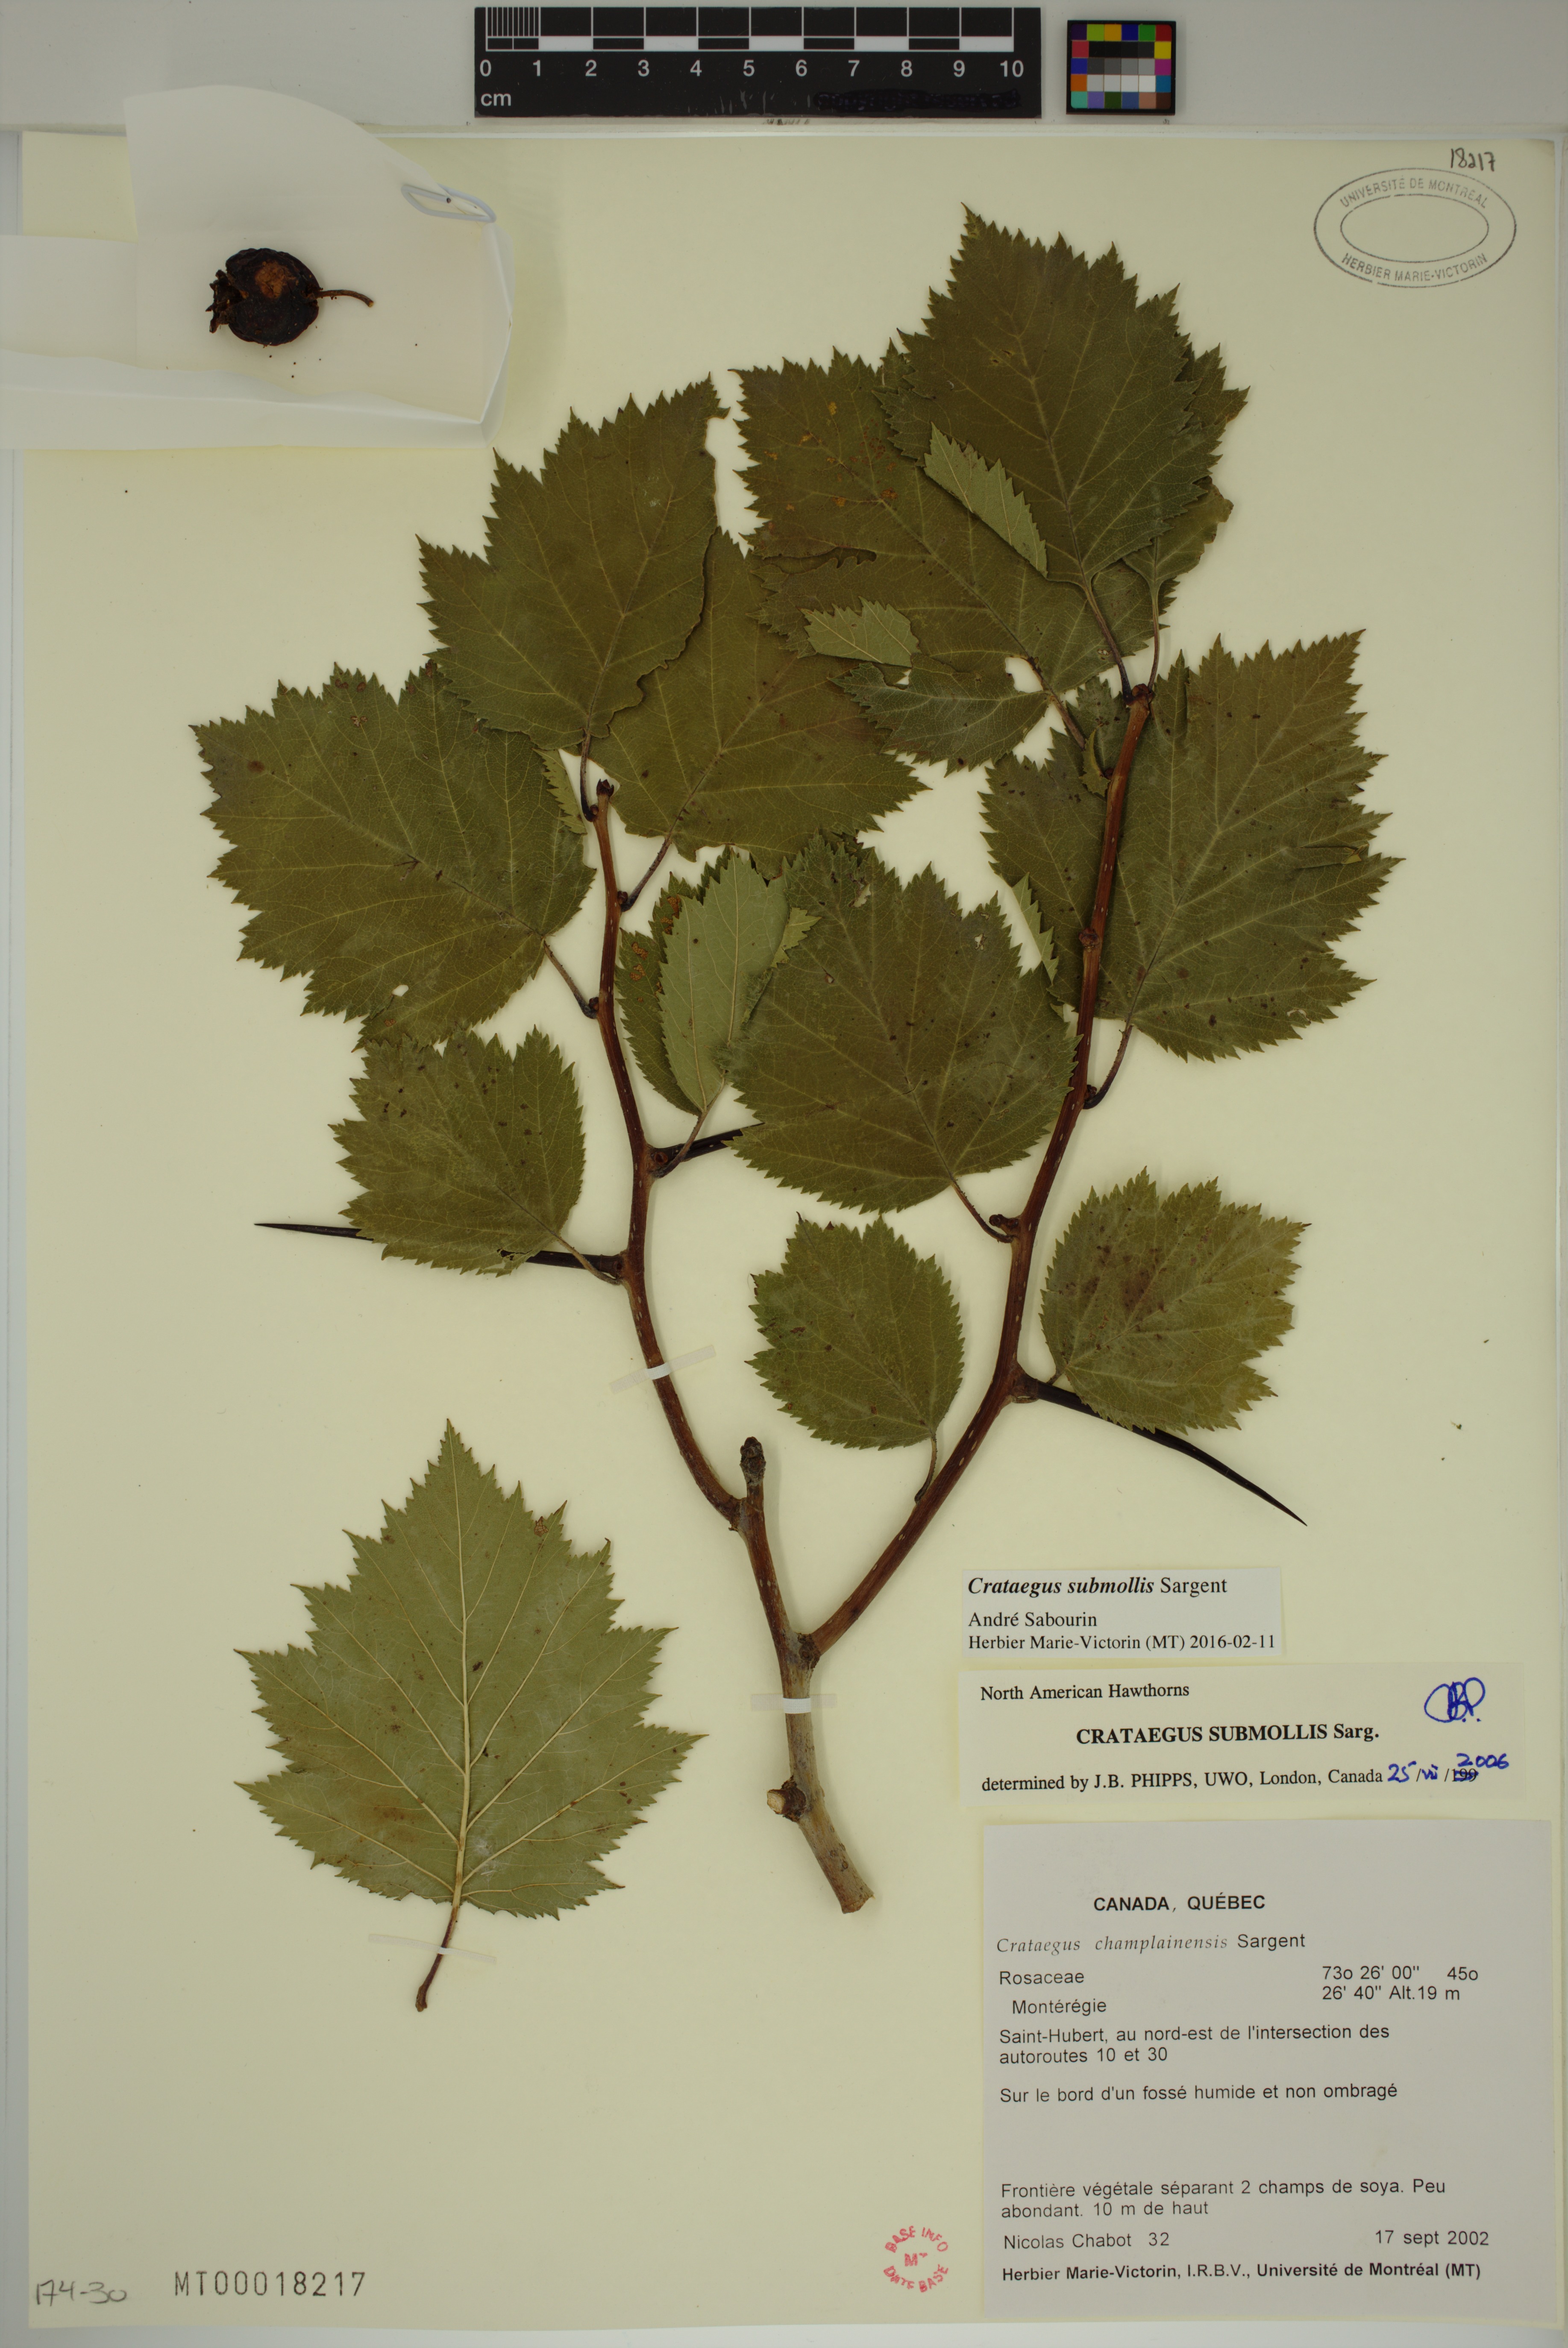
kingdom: Plantae
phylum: Tracheophyta
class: Magnoliopsida
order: Rosales
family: Rosaceae
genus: Crataegus
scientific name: Crataegus submollis
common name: Hairy cockspurthorn
